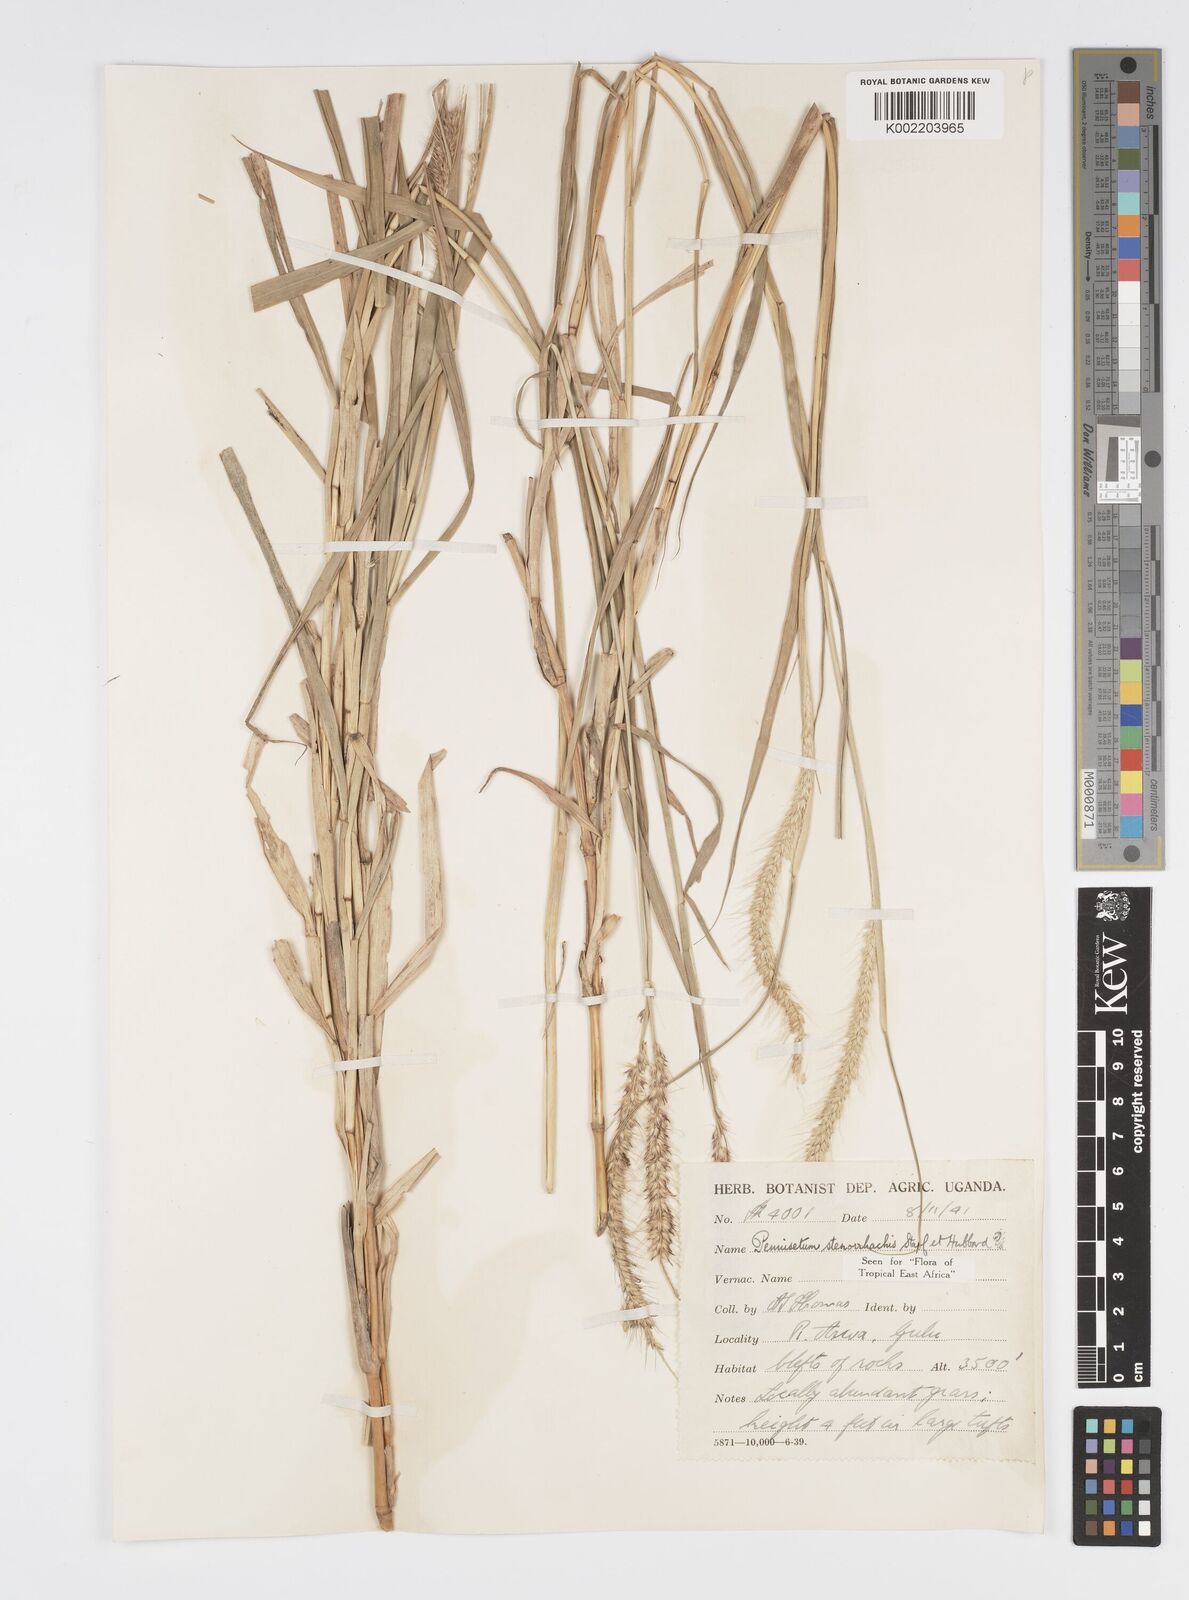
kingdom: Plantae
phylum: Tracheophyta
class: Liliopsida
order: Poales
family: Poaceae
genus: Cenchrus
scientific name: Cenchrus caudatus
